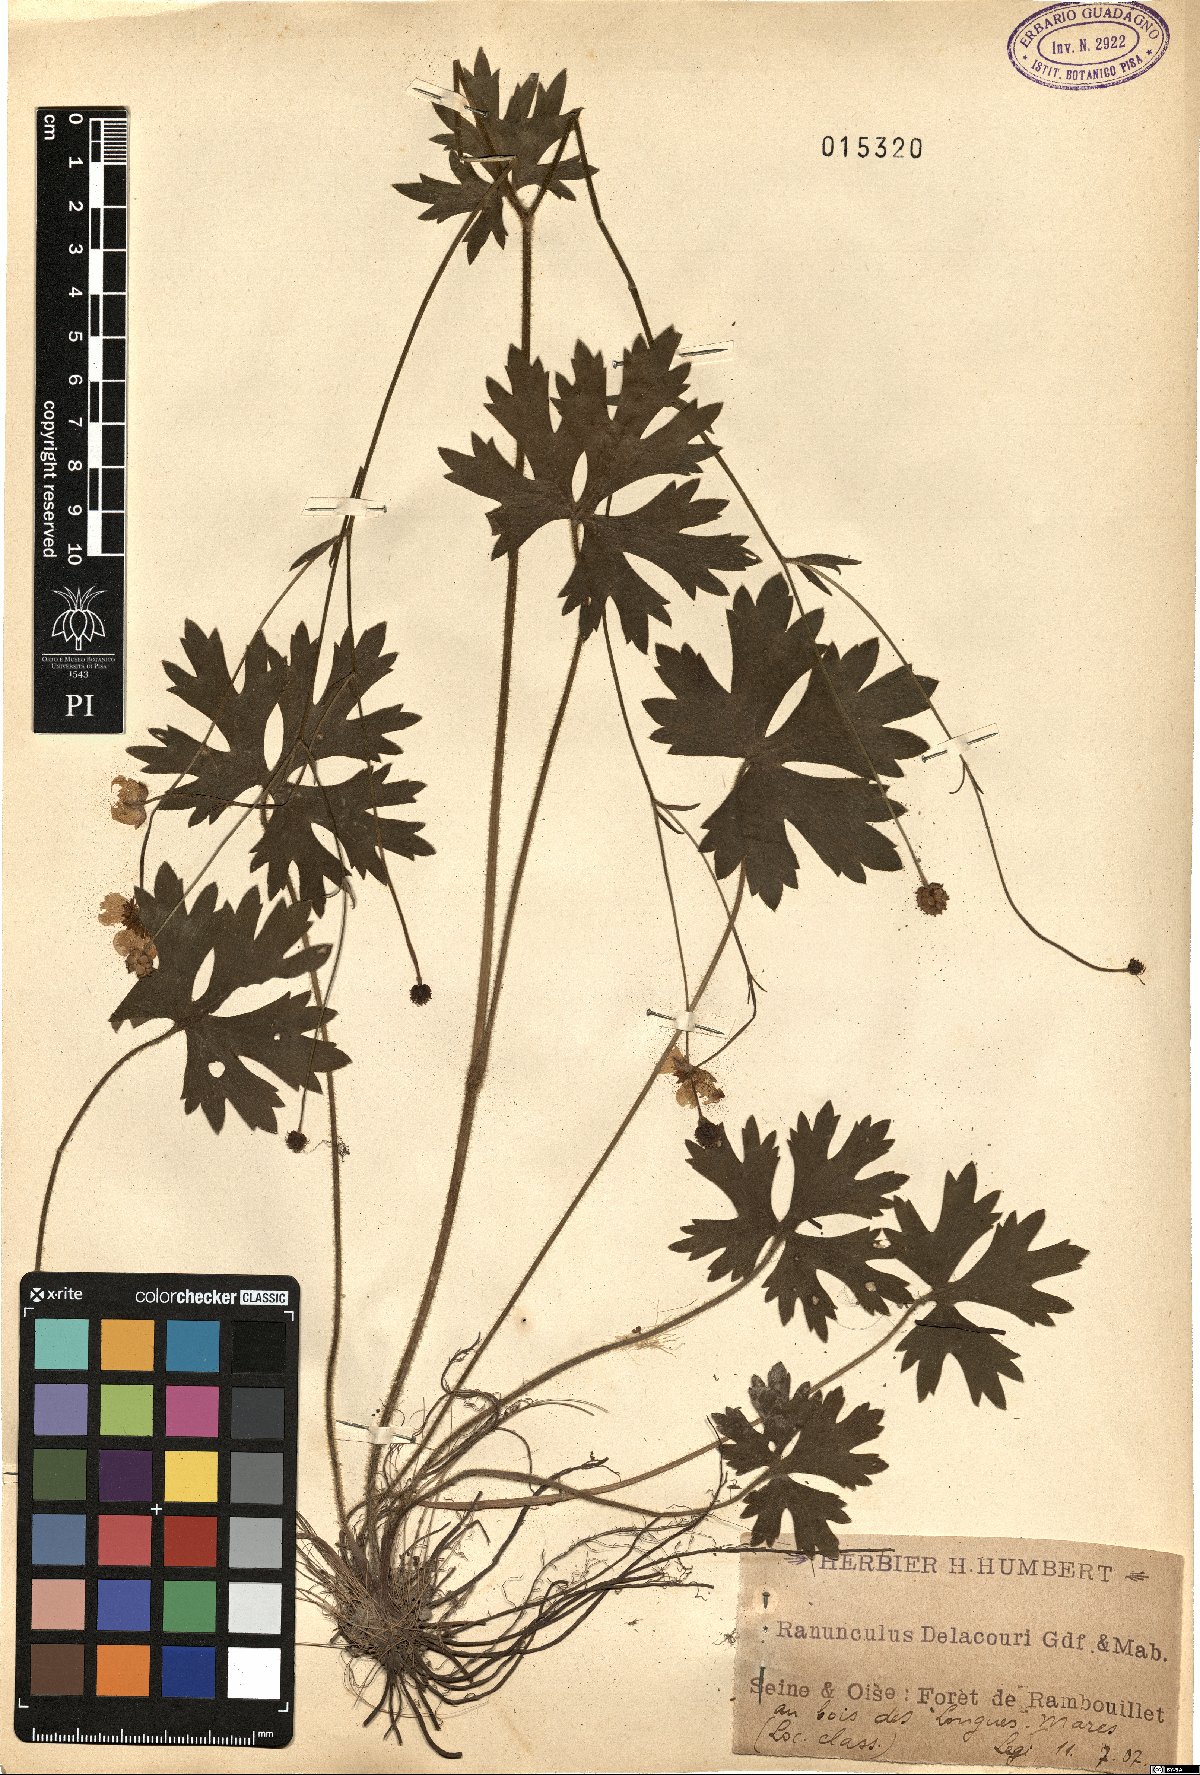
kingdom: Plantae
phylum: Tracheophyta
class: Magnoliopsida
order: Ranunculales
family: Ranunculaceae
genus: Ranunculus
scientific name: Ranunculus polyanthemos
